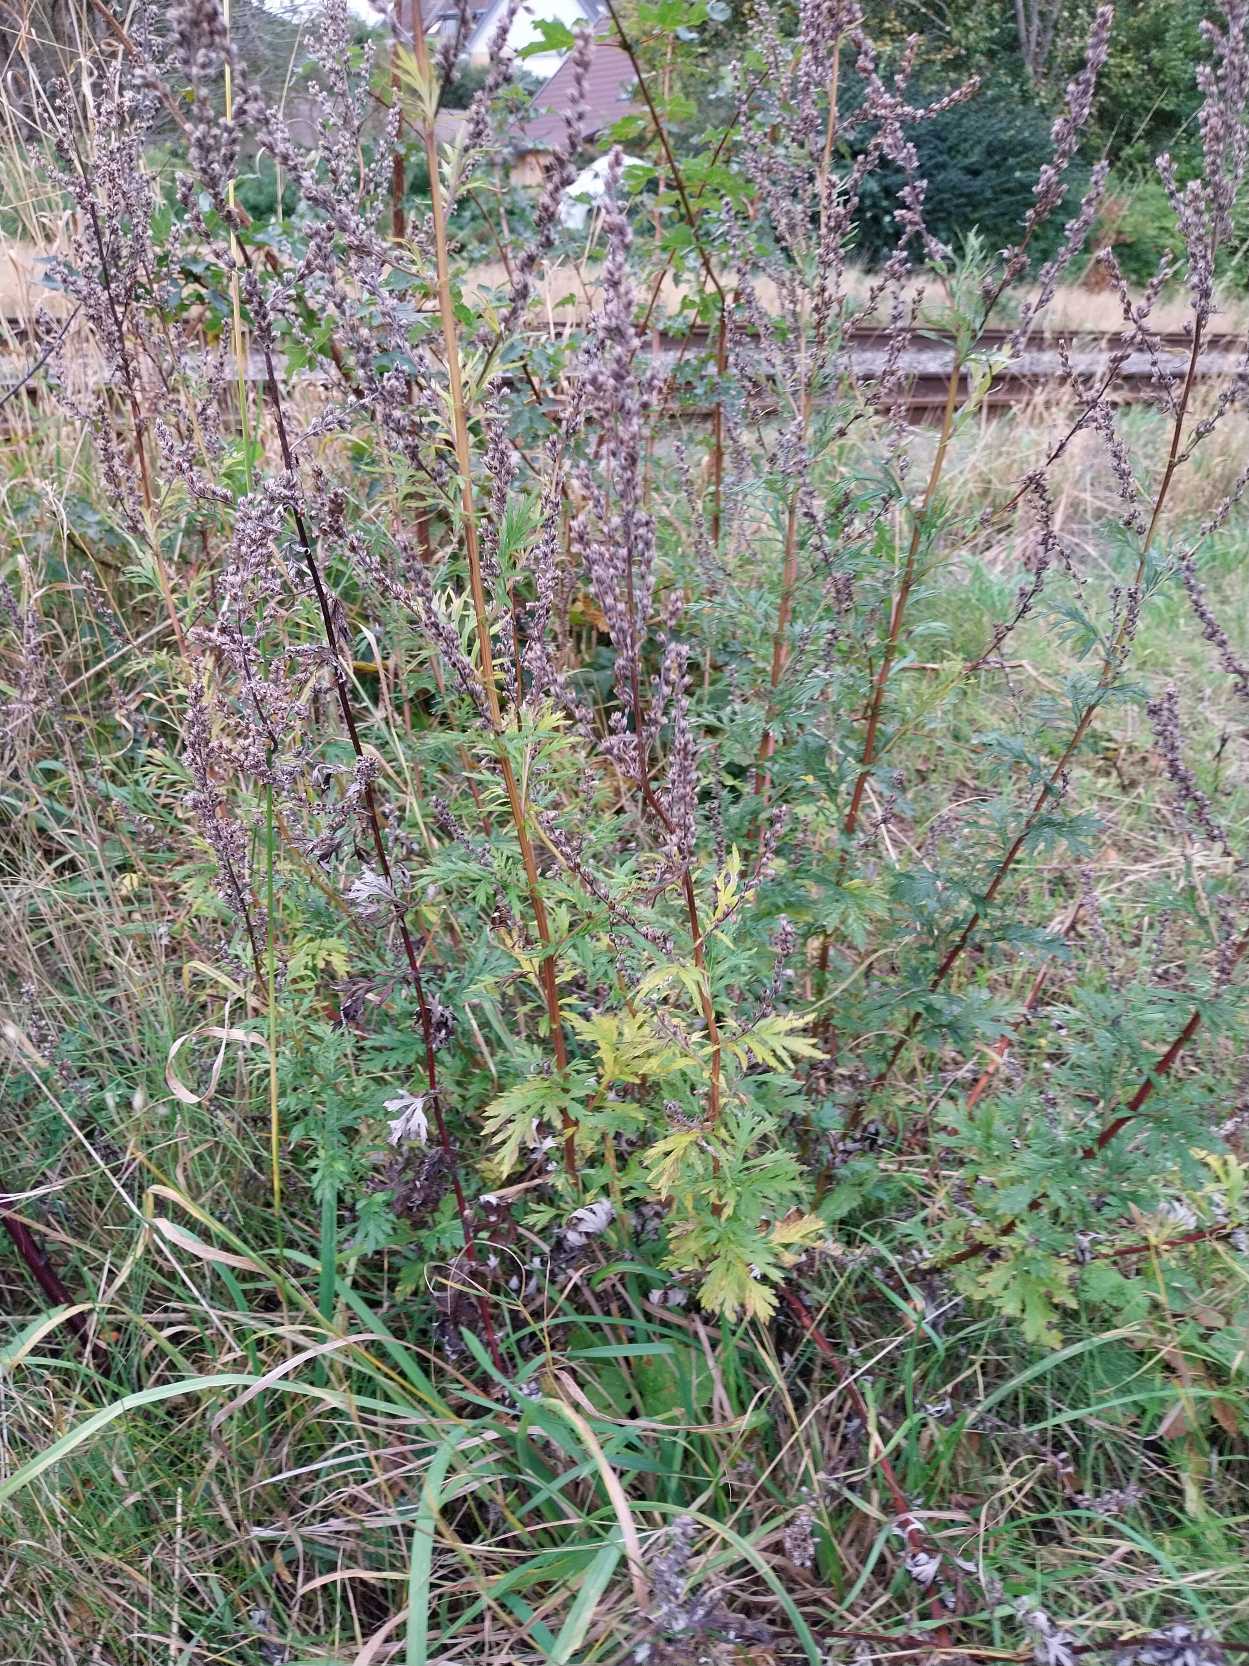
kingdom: Plantae
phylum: Tracheophyta
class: Magnoliopsida
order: Asterales
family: Asteraceae
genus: Artemisia
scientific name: Artemisia vulgaris
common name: Grå-bynke
